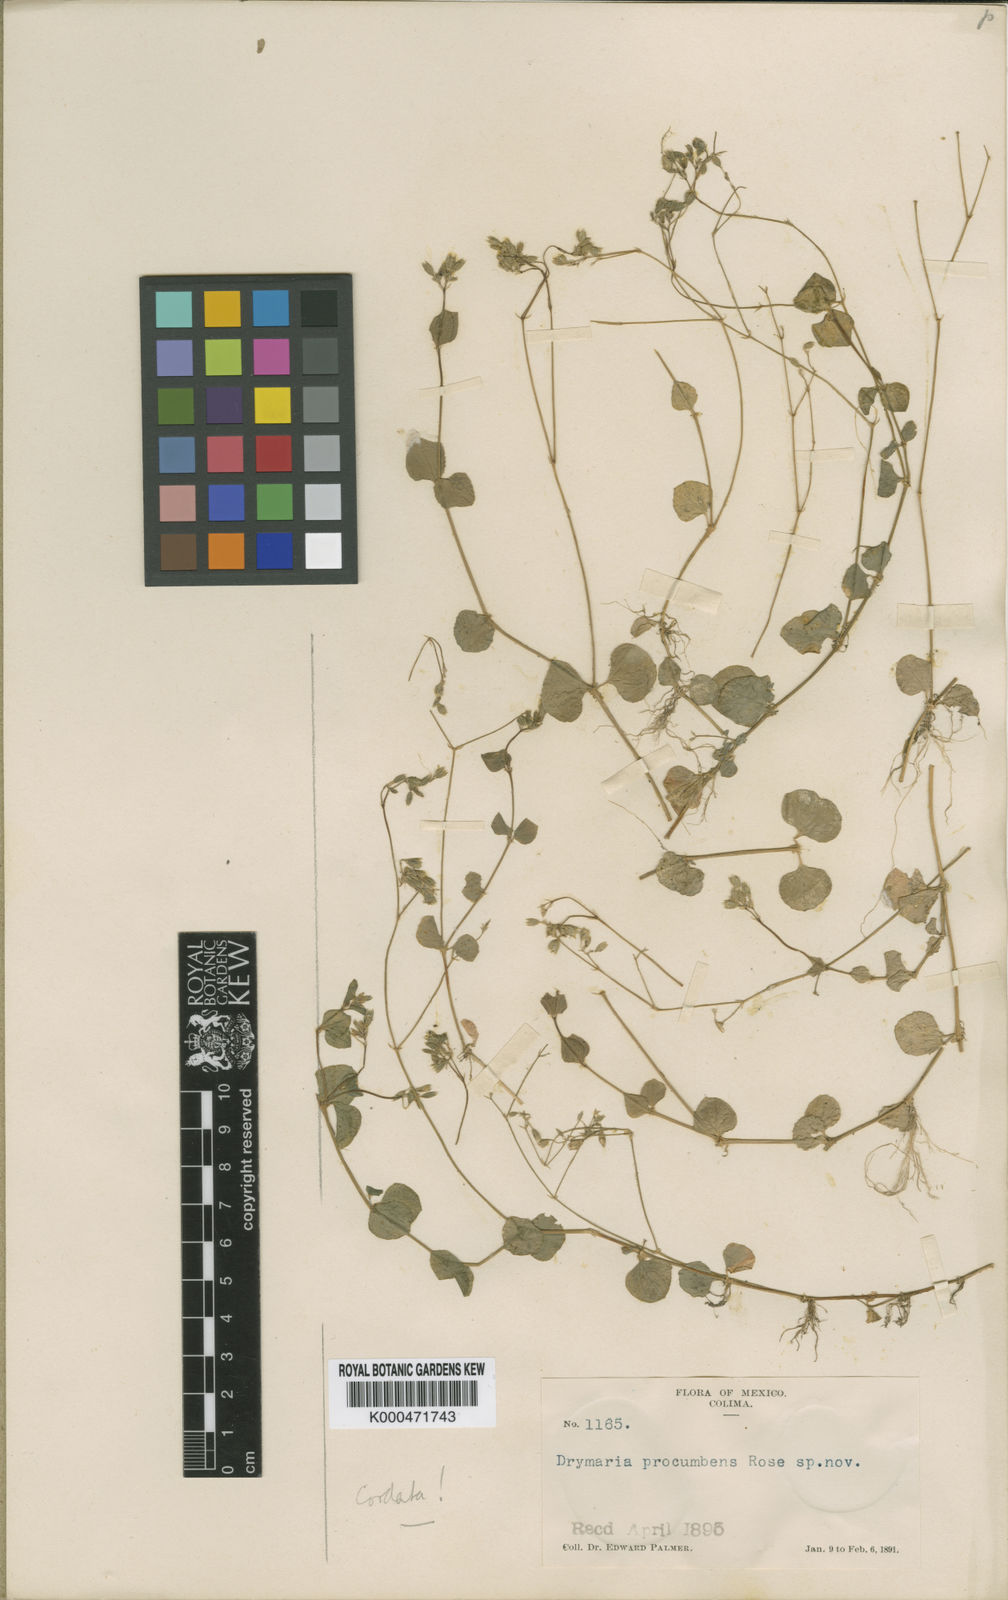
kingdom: Plantae
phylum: Tracheophyta
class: Magnoliopsida
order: Caryophyllales
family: Caryophyllaceae
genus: Drymaria
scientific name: Drymaria cordata
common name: Whitesnow
